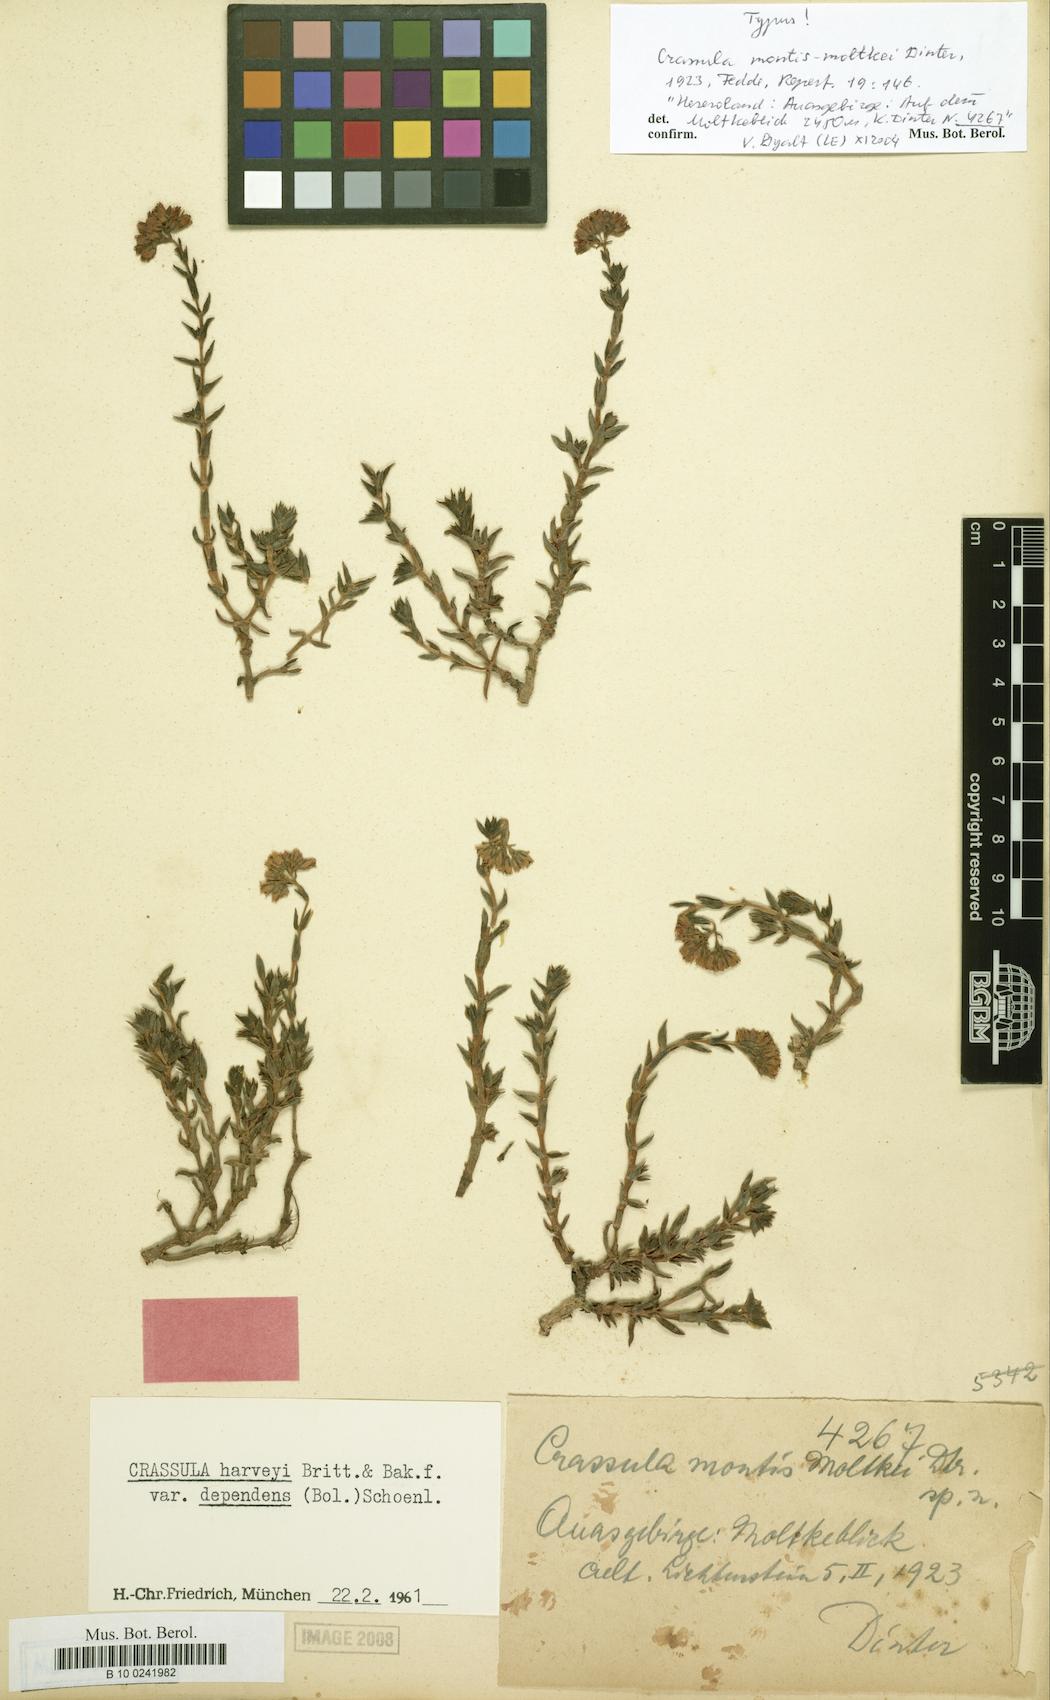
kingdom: Plantae
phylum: Tracheophyta
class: Magnoliopsida
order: Saxifragales
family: Crassulaceae
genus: Crassula
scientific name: Crassula dependens
